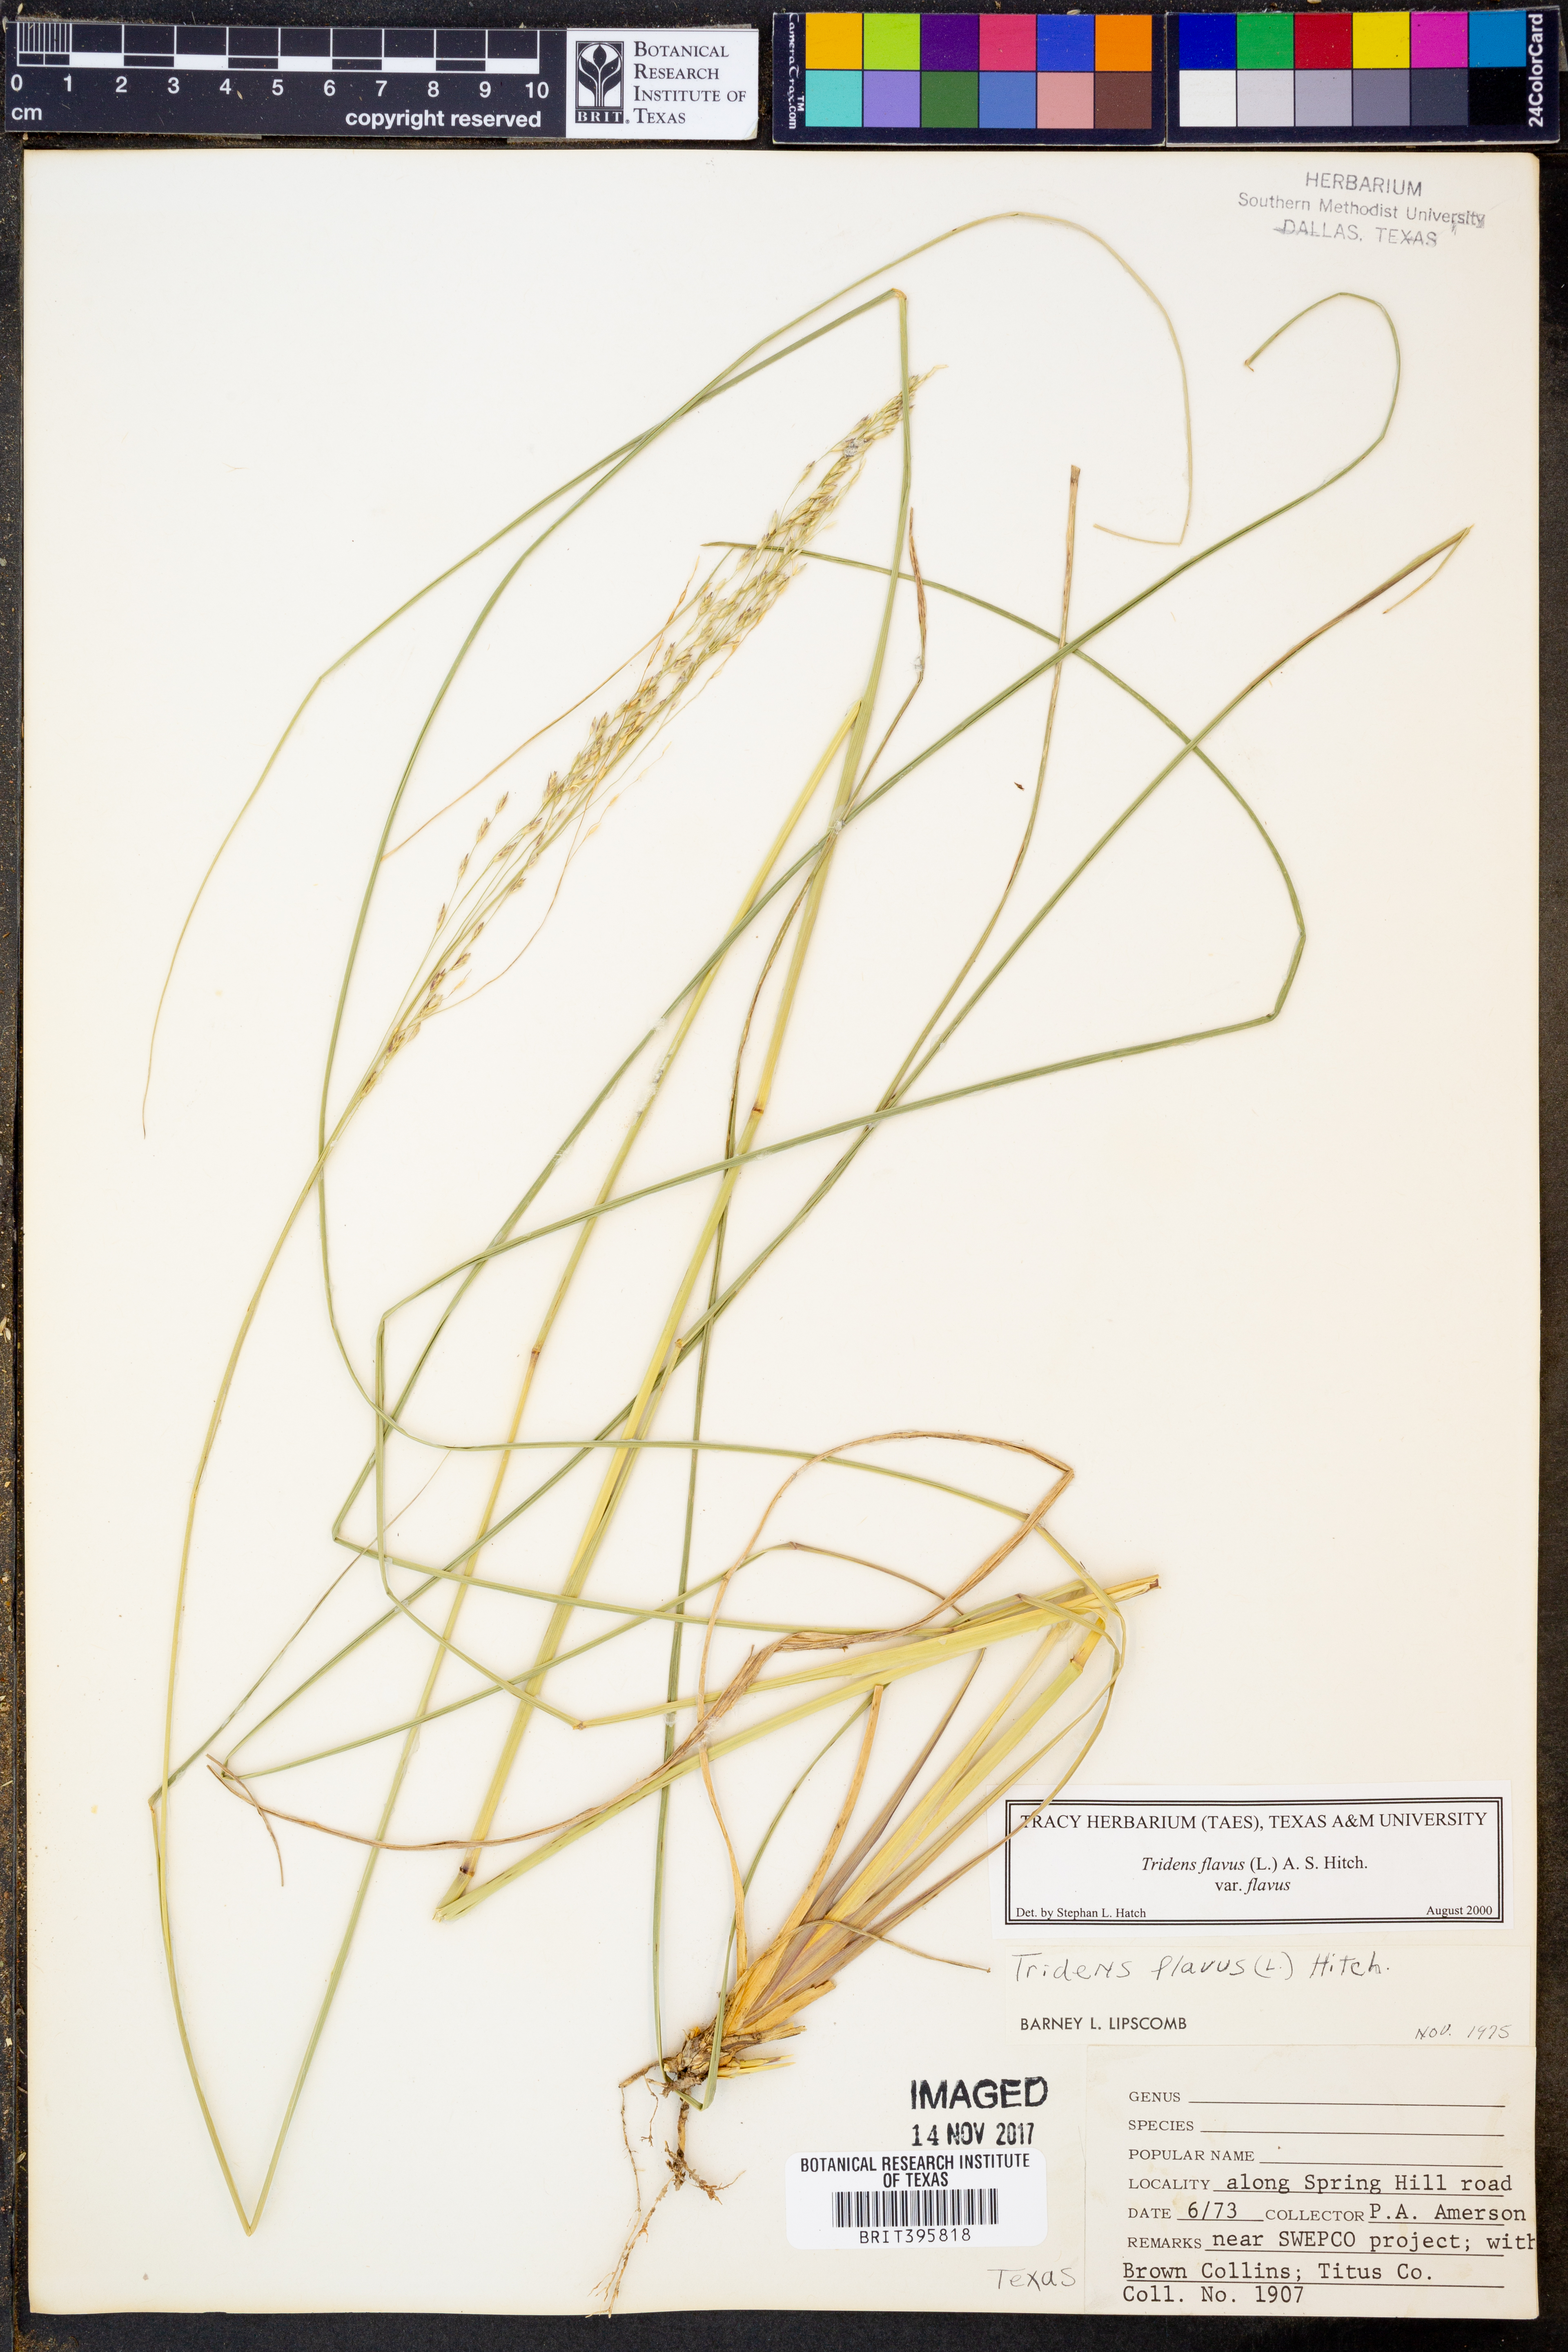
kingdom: Plantae
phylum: Tracheophyta
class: Liliopsida
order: Poales
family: Poaceae
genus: Tridens
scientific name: Tridens flavus
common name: Purpletop
